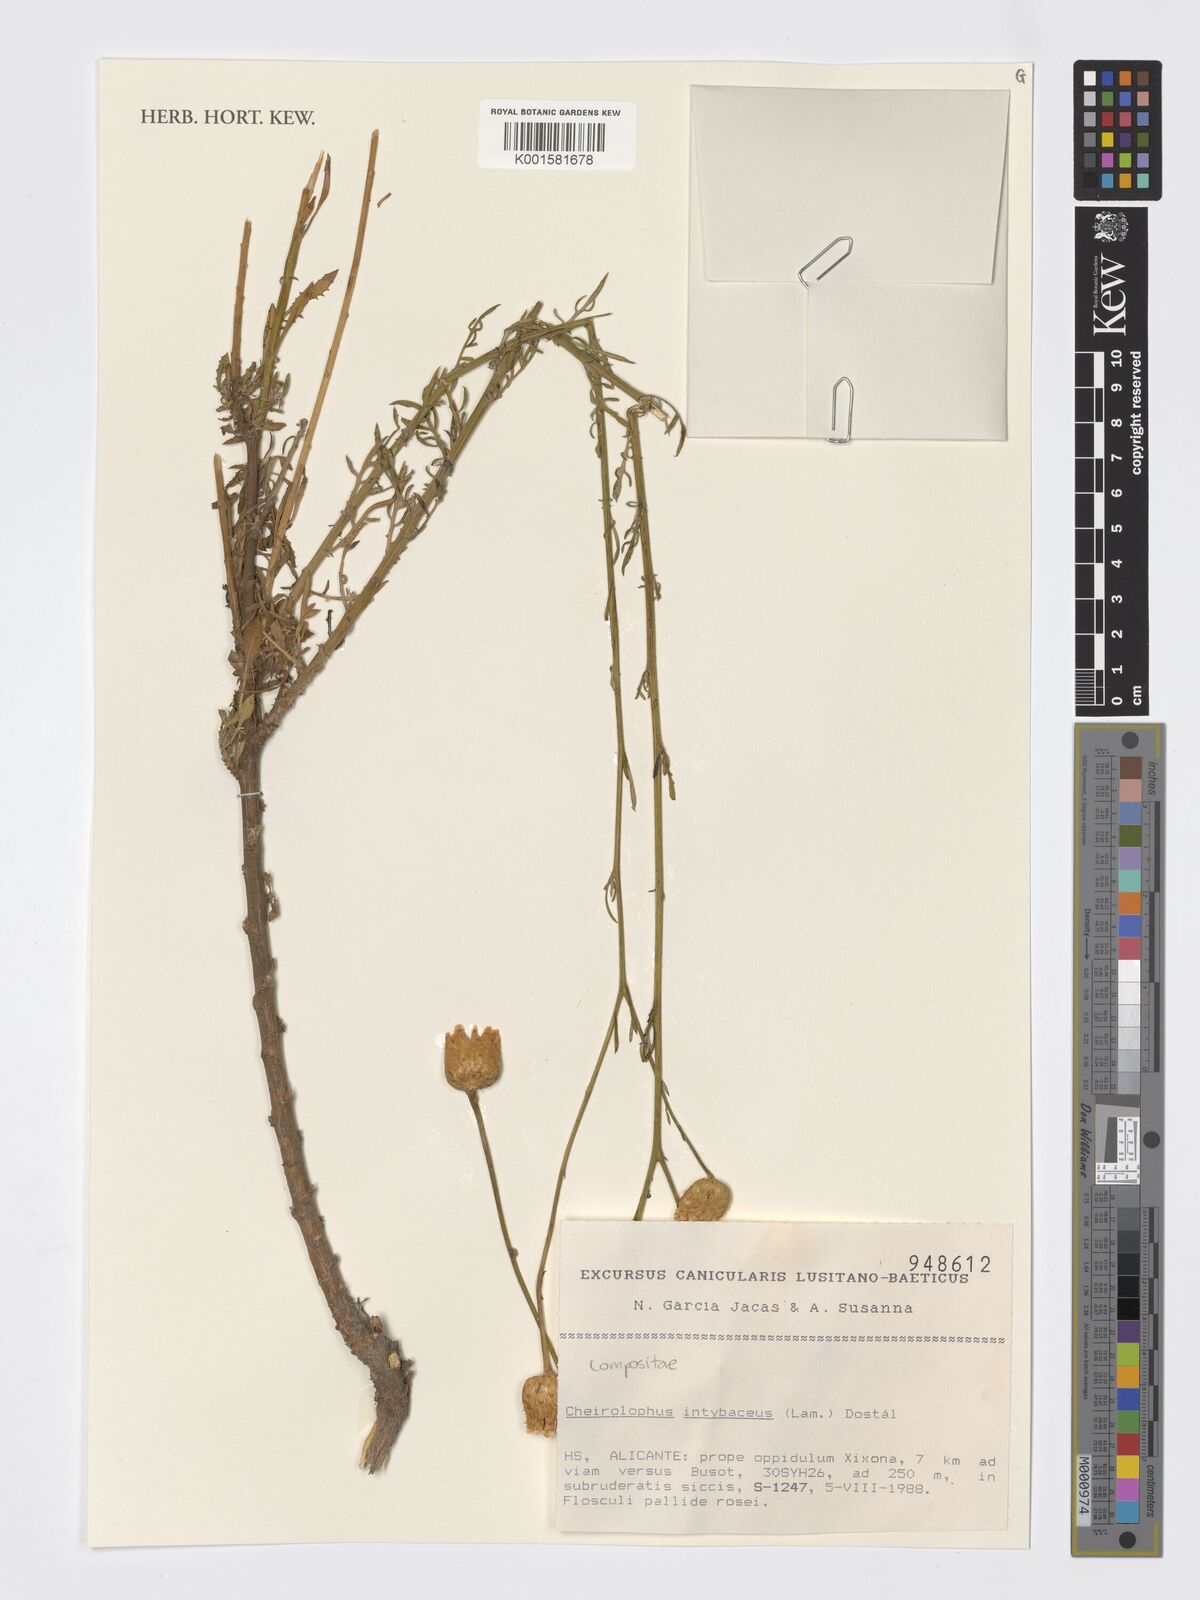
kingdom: Plantae
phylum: Tracheophyta
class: Magnoliopsida
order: Asterales
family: Asteraceae
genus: Cheirolophus
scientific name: Cheirolophus intybaceus
